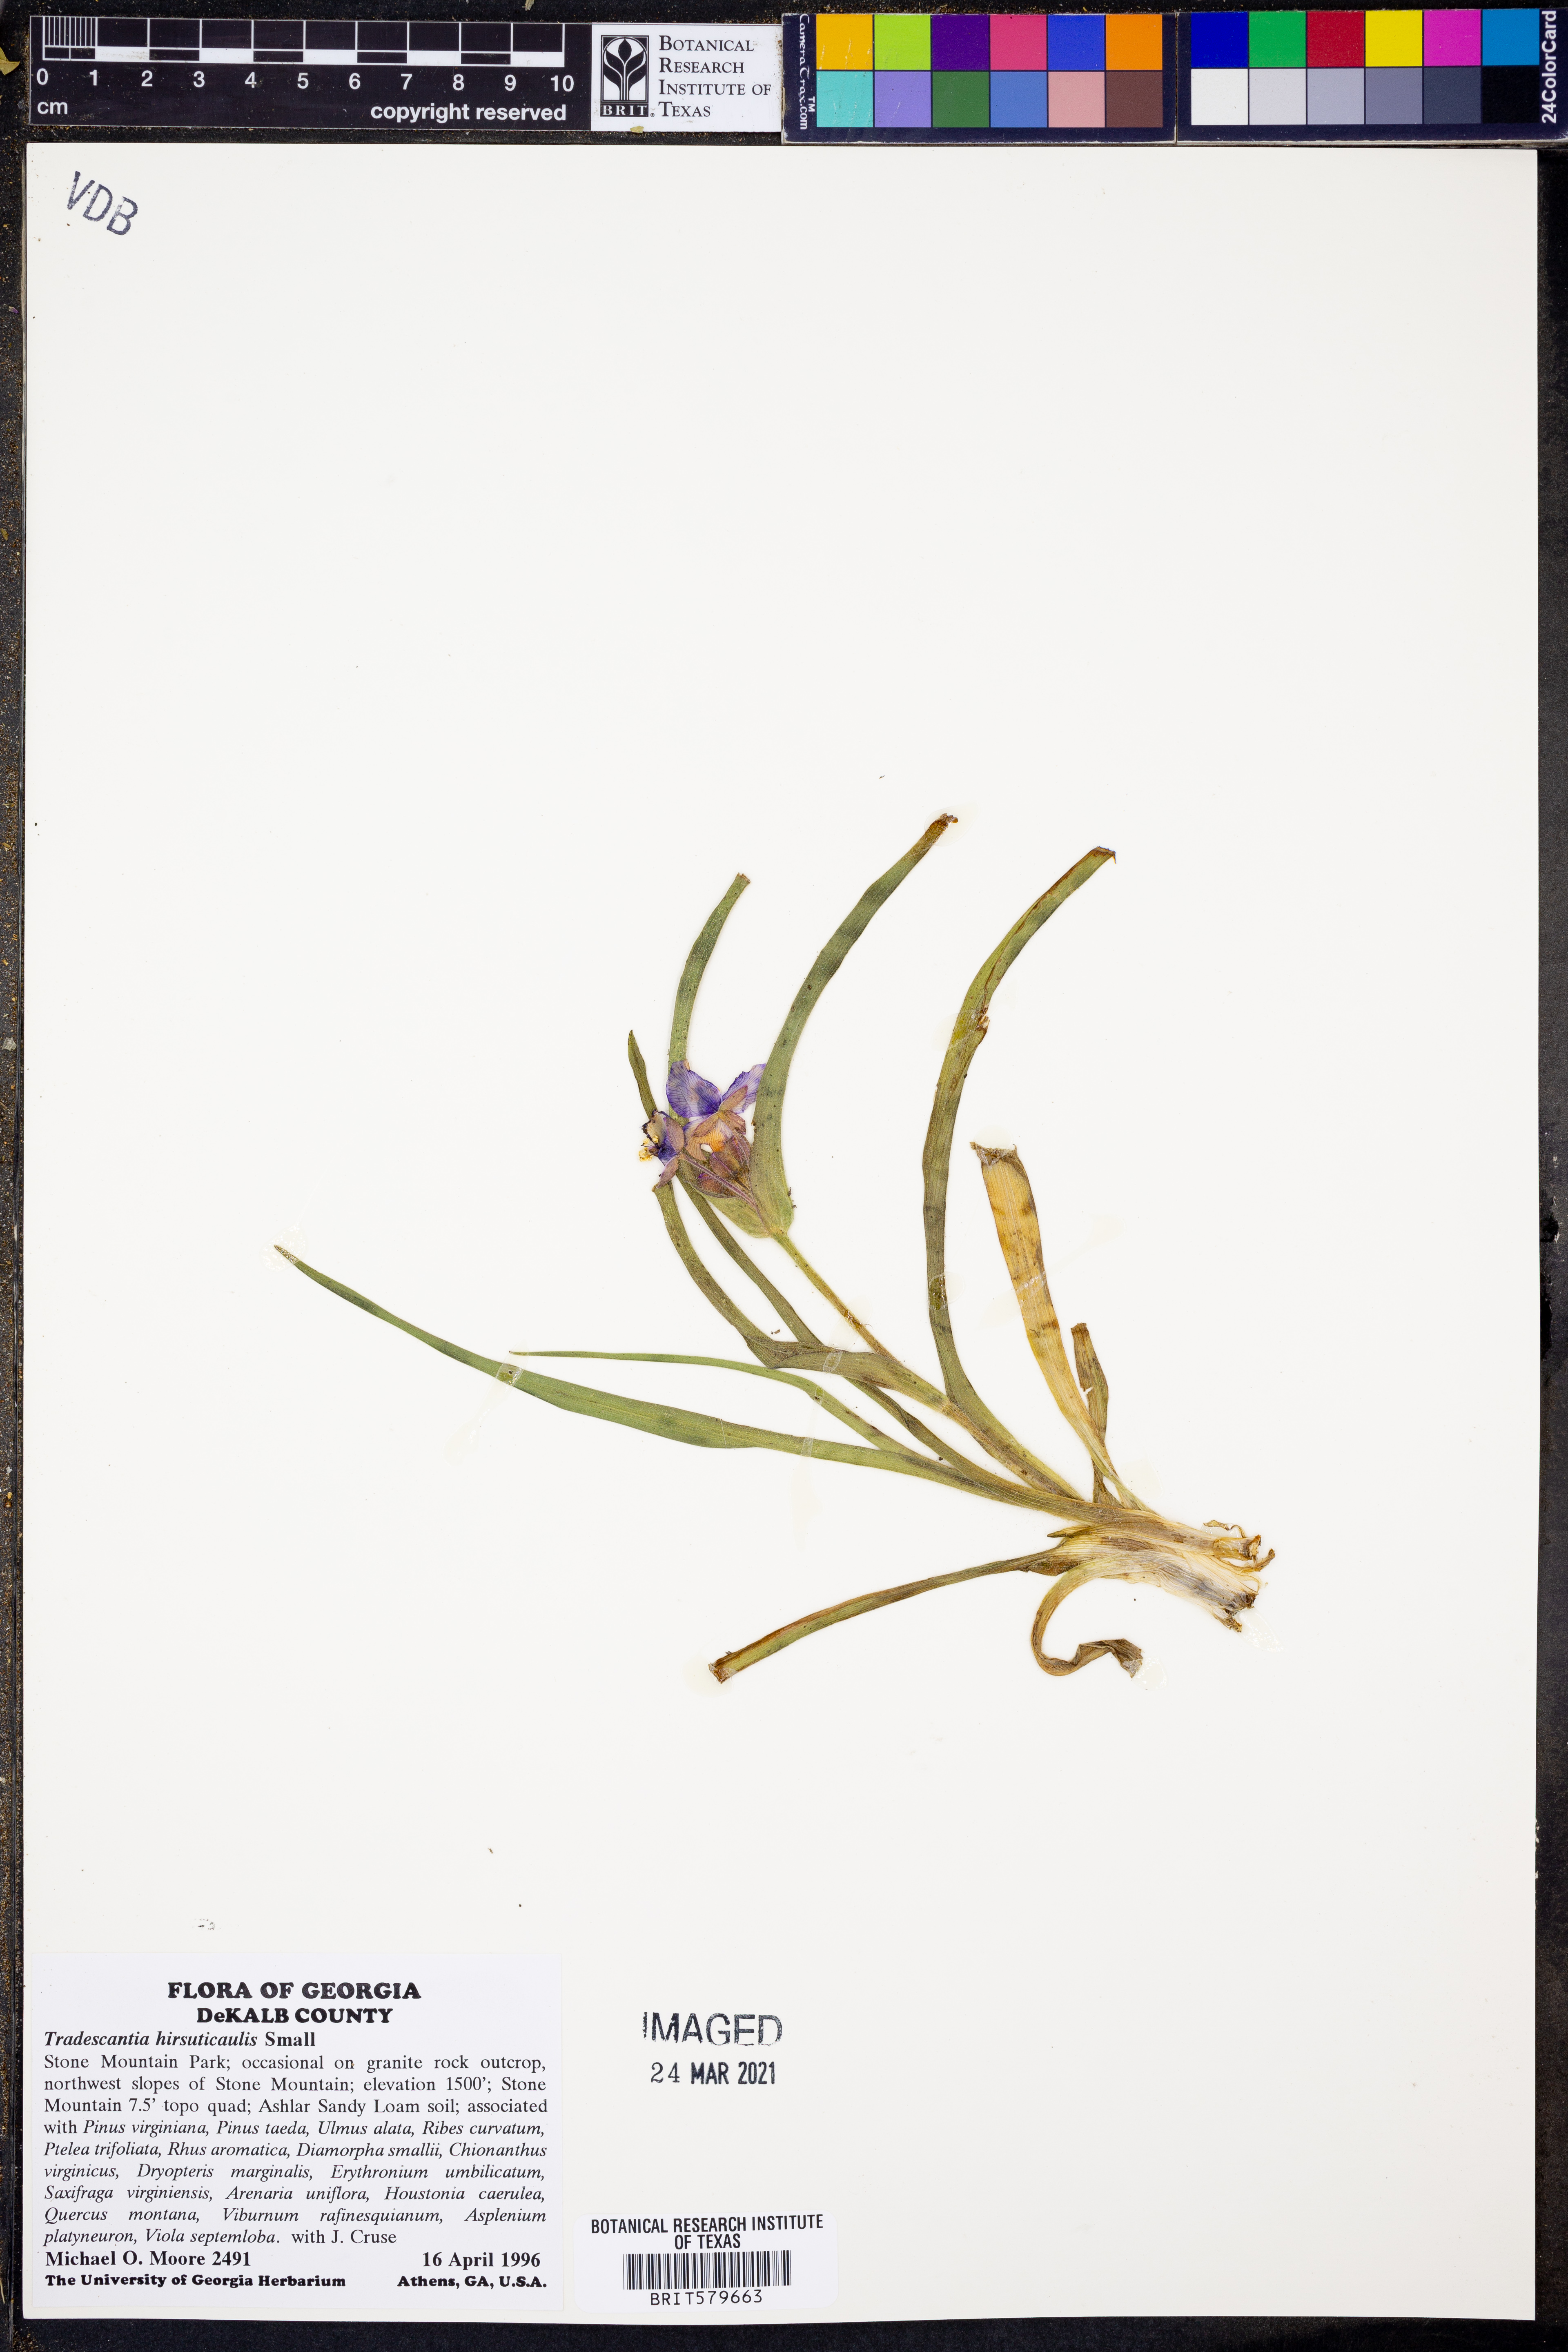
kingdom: Plantae
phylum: Tracheophyta
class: Liliopsida
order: Commelinales
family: Commelinaceae
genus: Tradescantia
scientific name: Tradescantia hirsuticaulis
